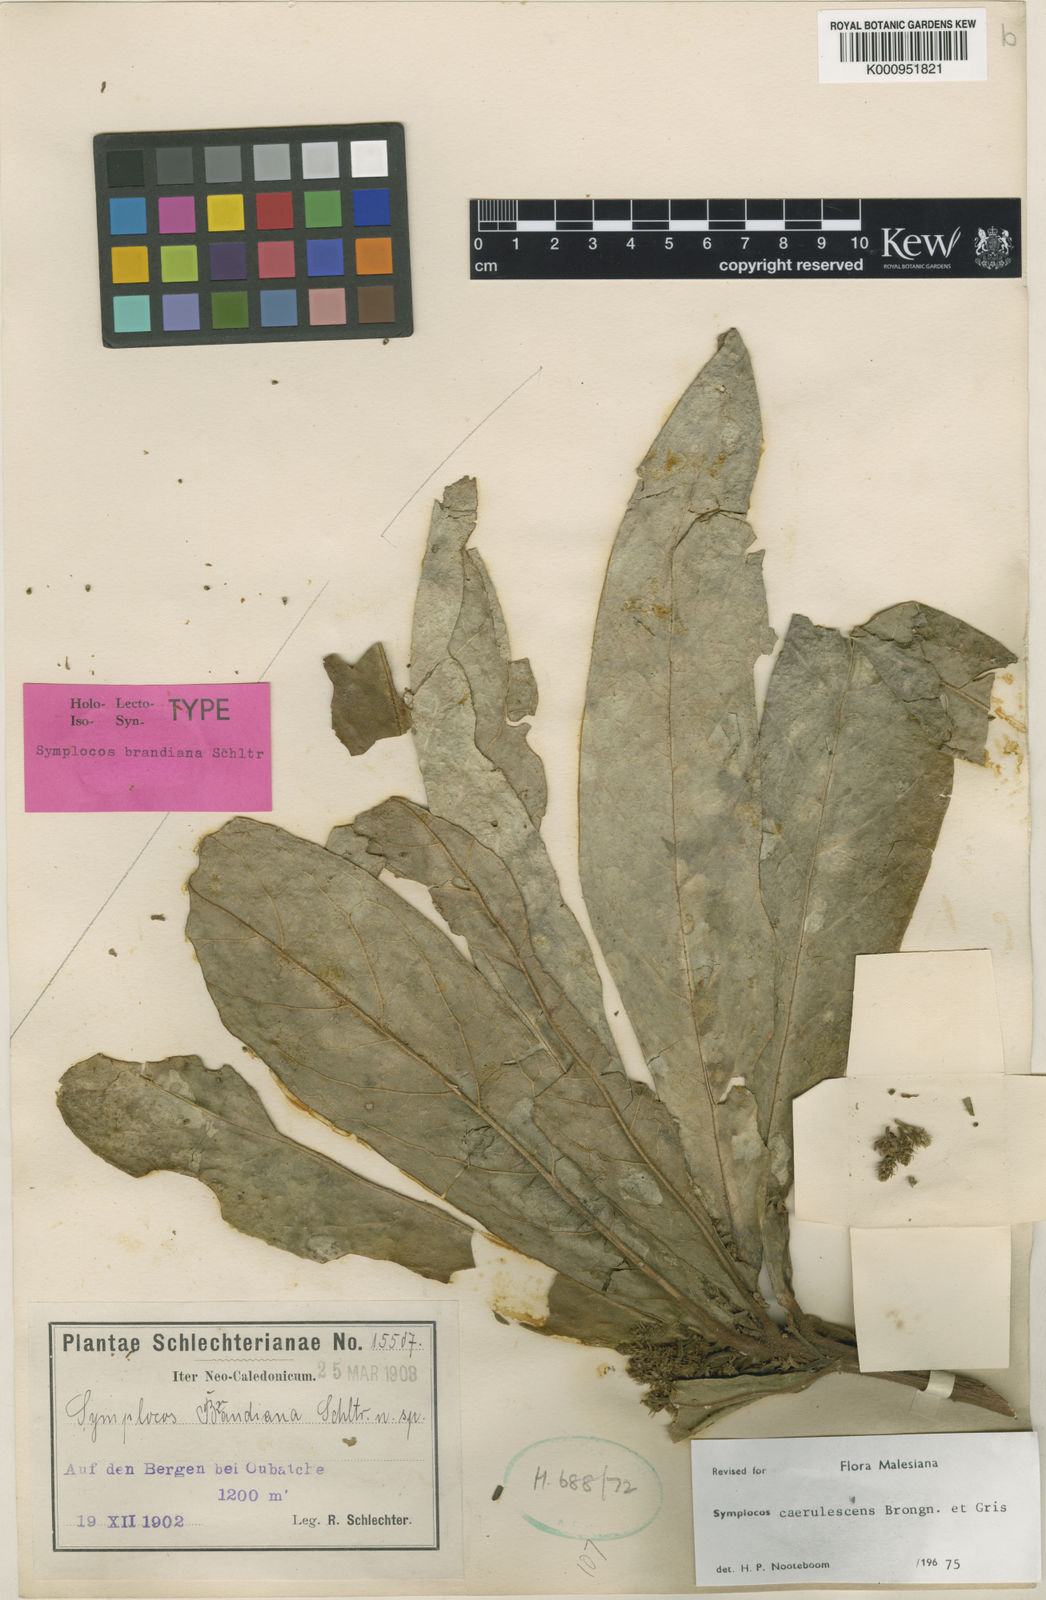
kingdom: Plantae
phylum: Tracheophyta
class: Magnoliopsida
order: Ericales
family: Symplocaceae
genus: Symplocos
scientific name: Symplocos caerulescens
